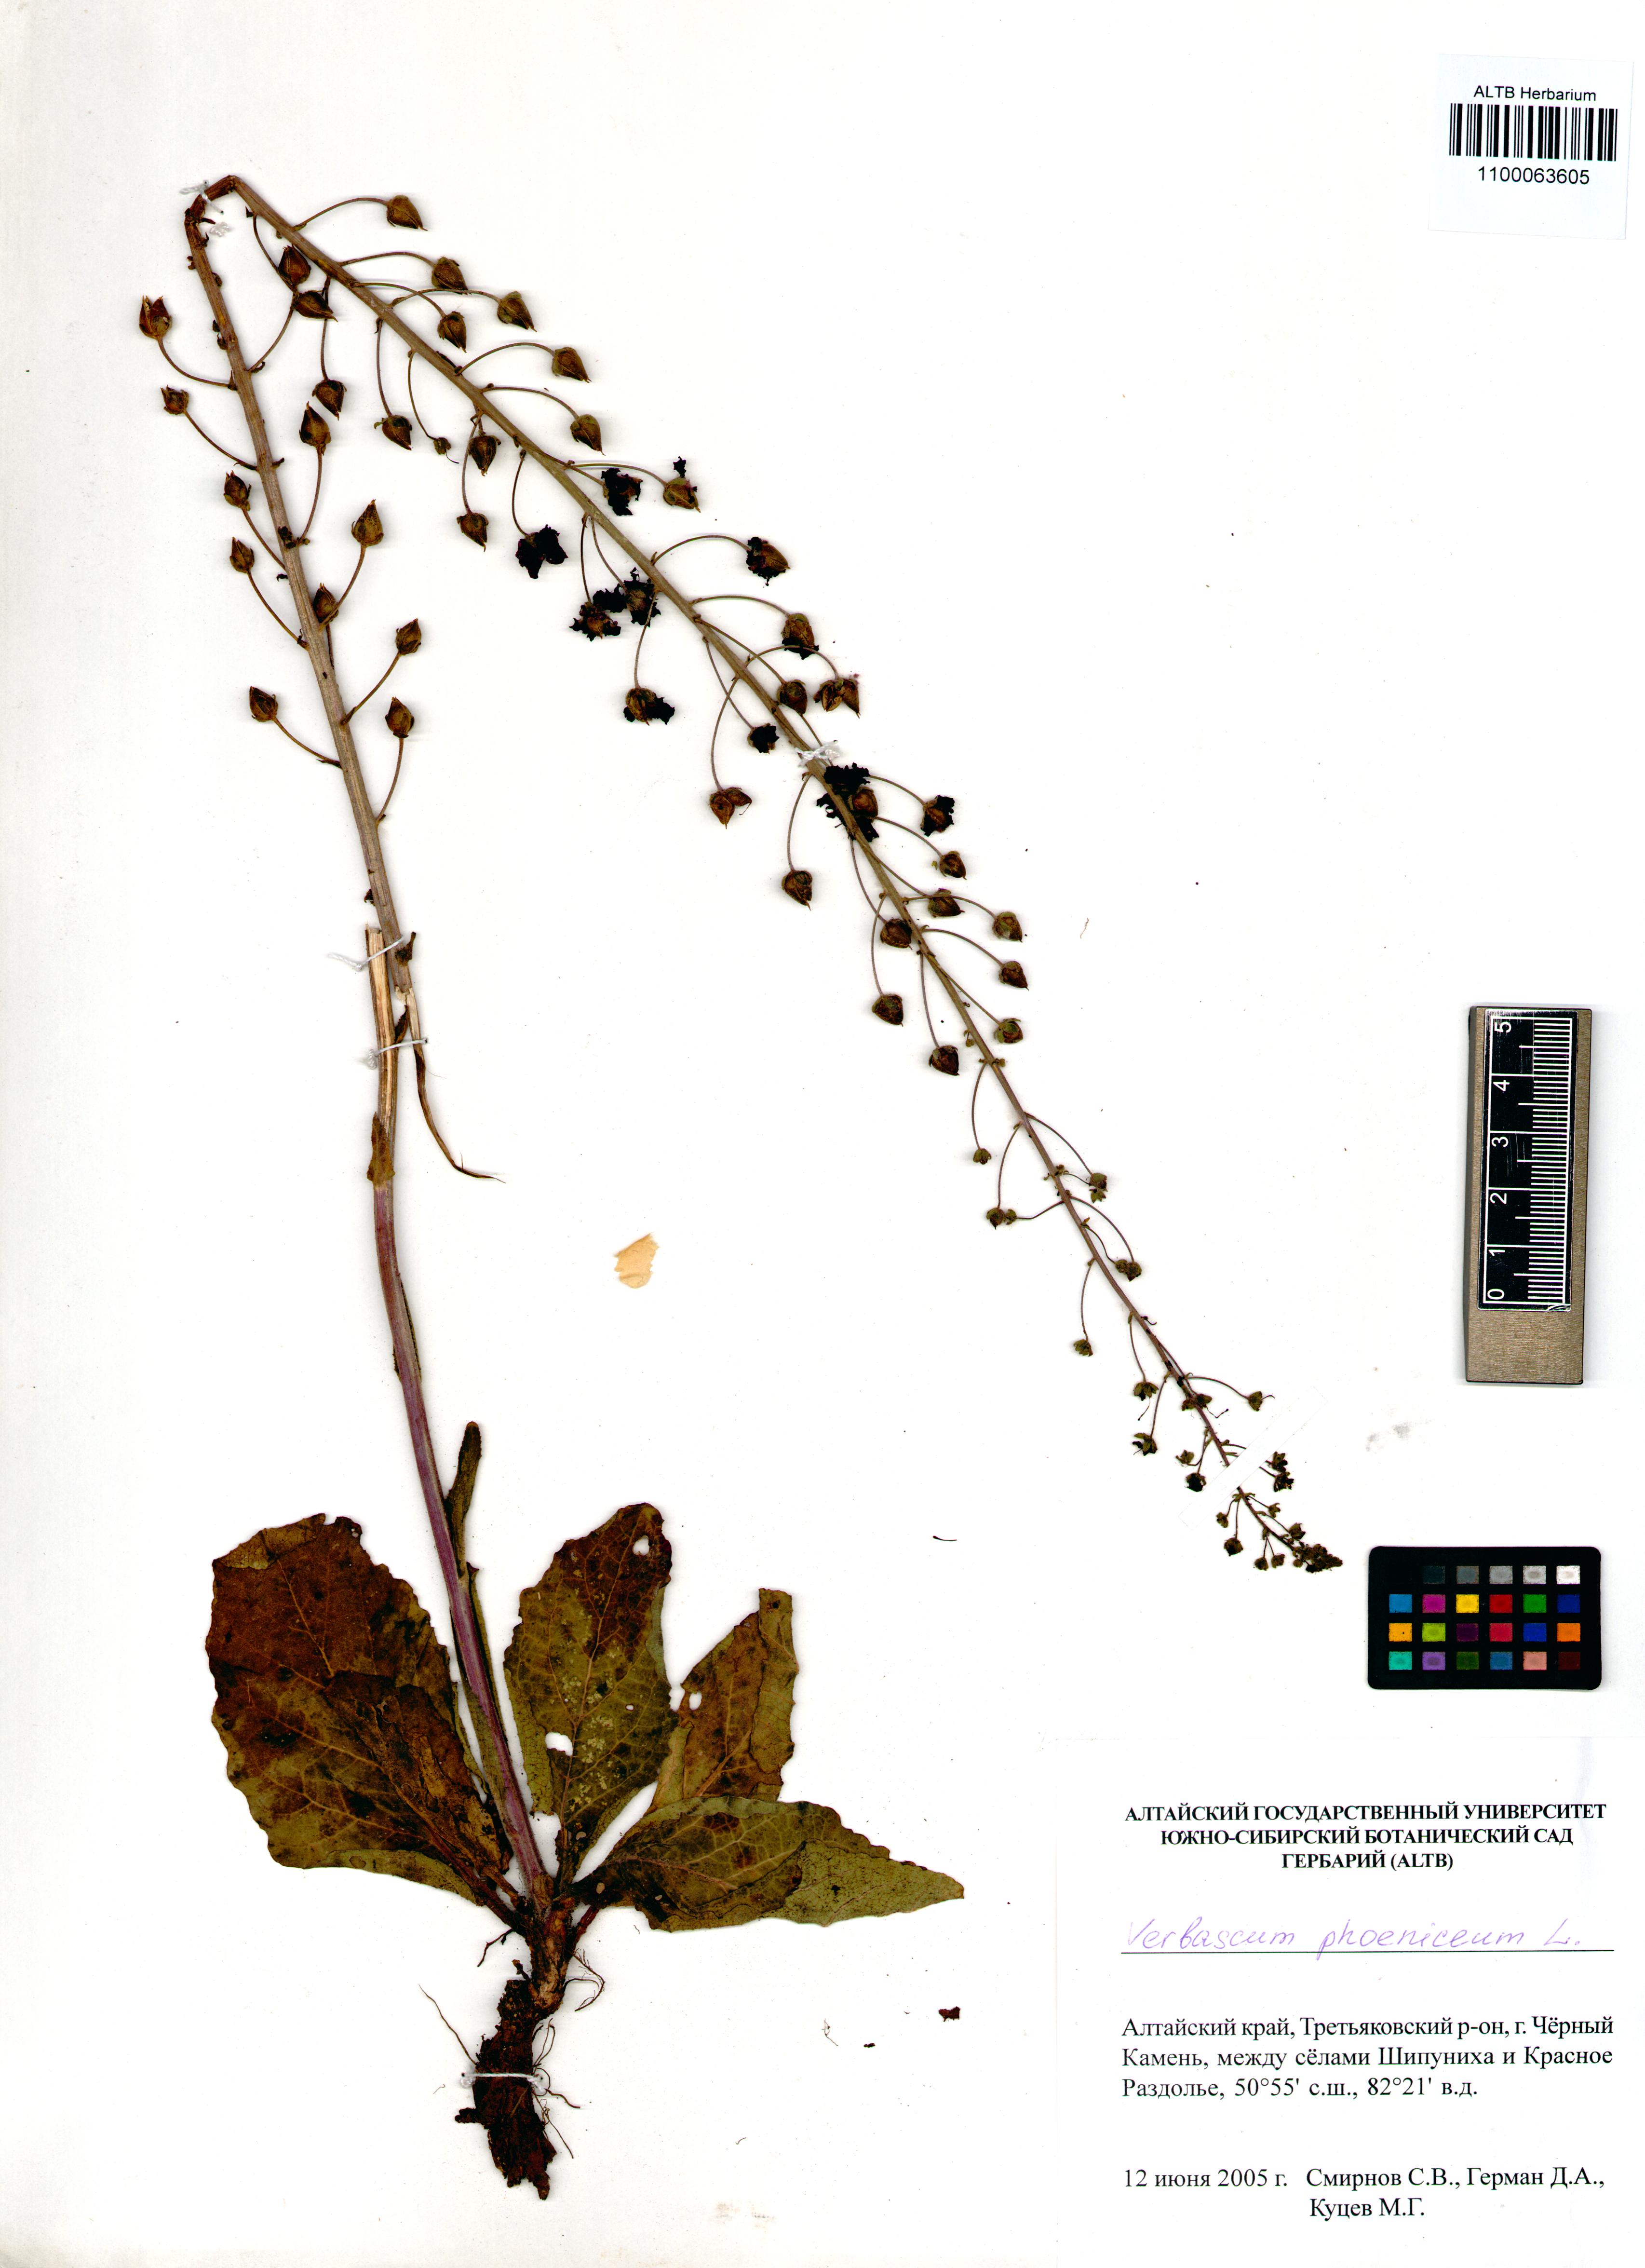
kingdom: Plantae
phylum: Tracheophyta
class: Magnoliopsida
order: Lamiales
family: Scrophulariaceae
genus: Verbascum
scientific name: Verbascum phoeniceum
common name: Purple mullein
